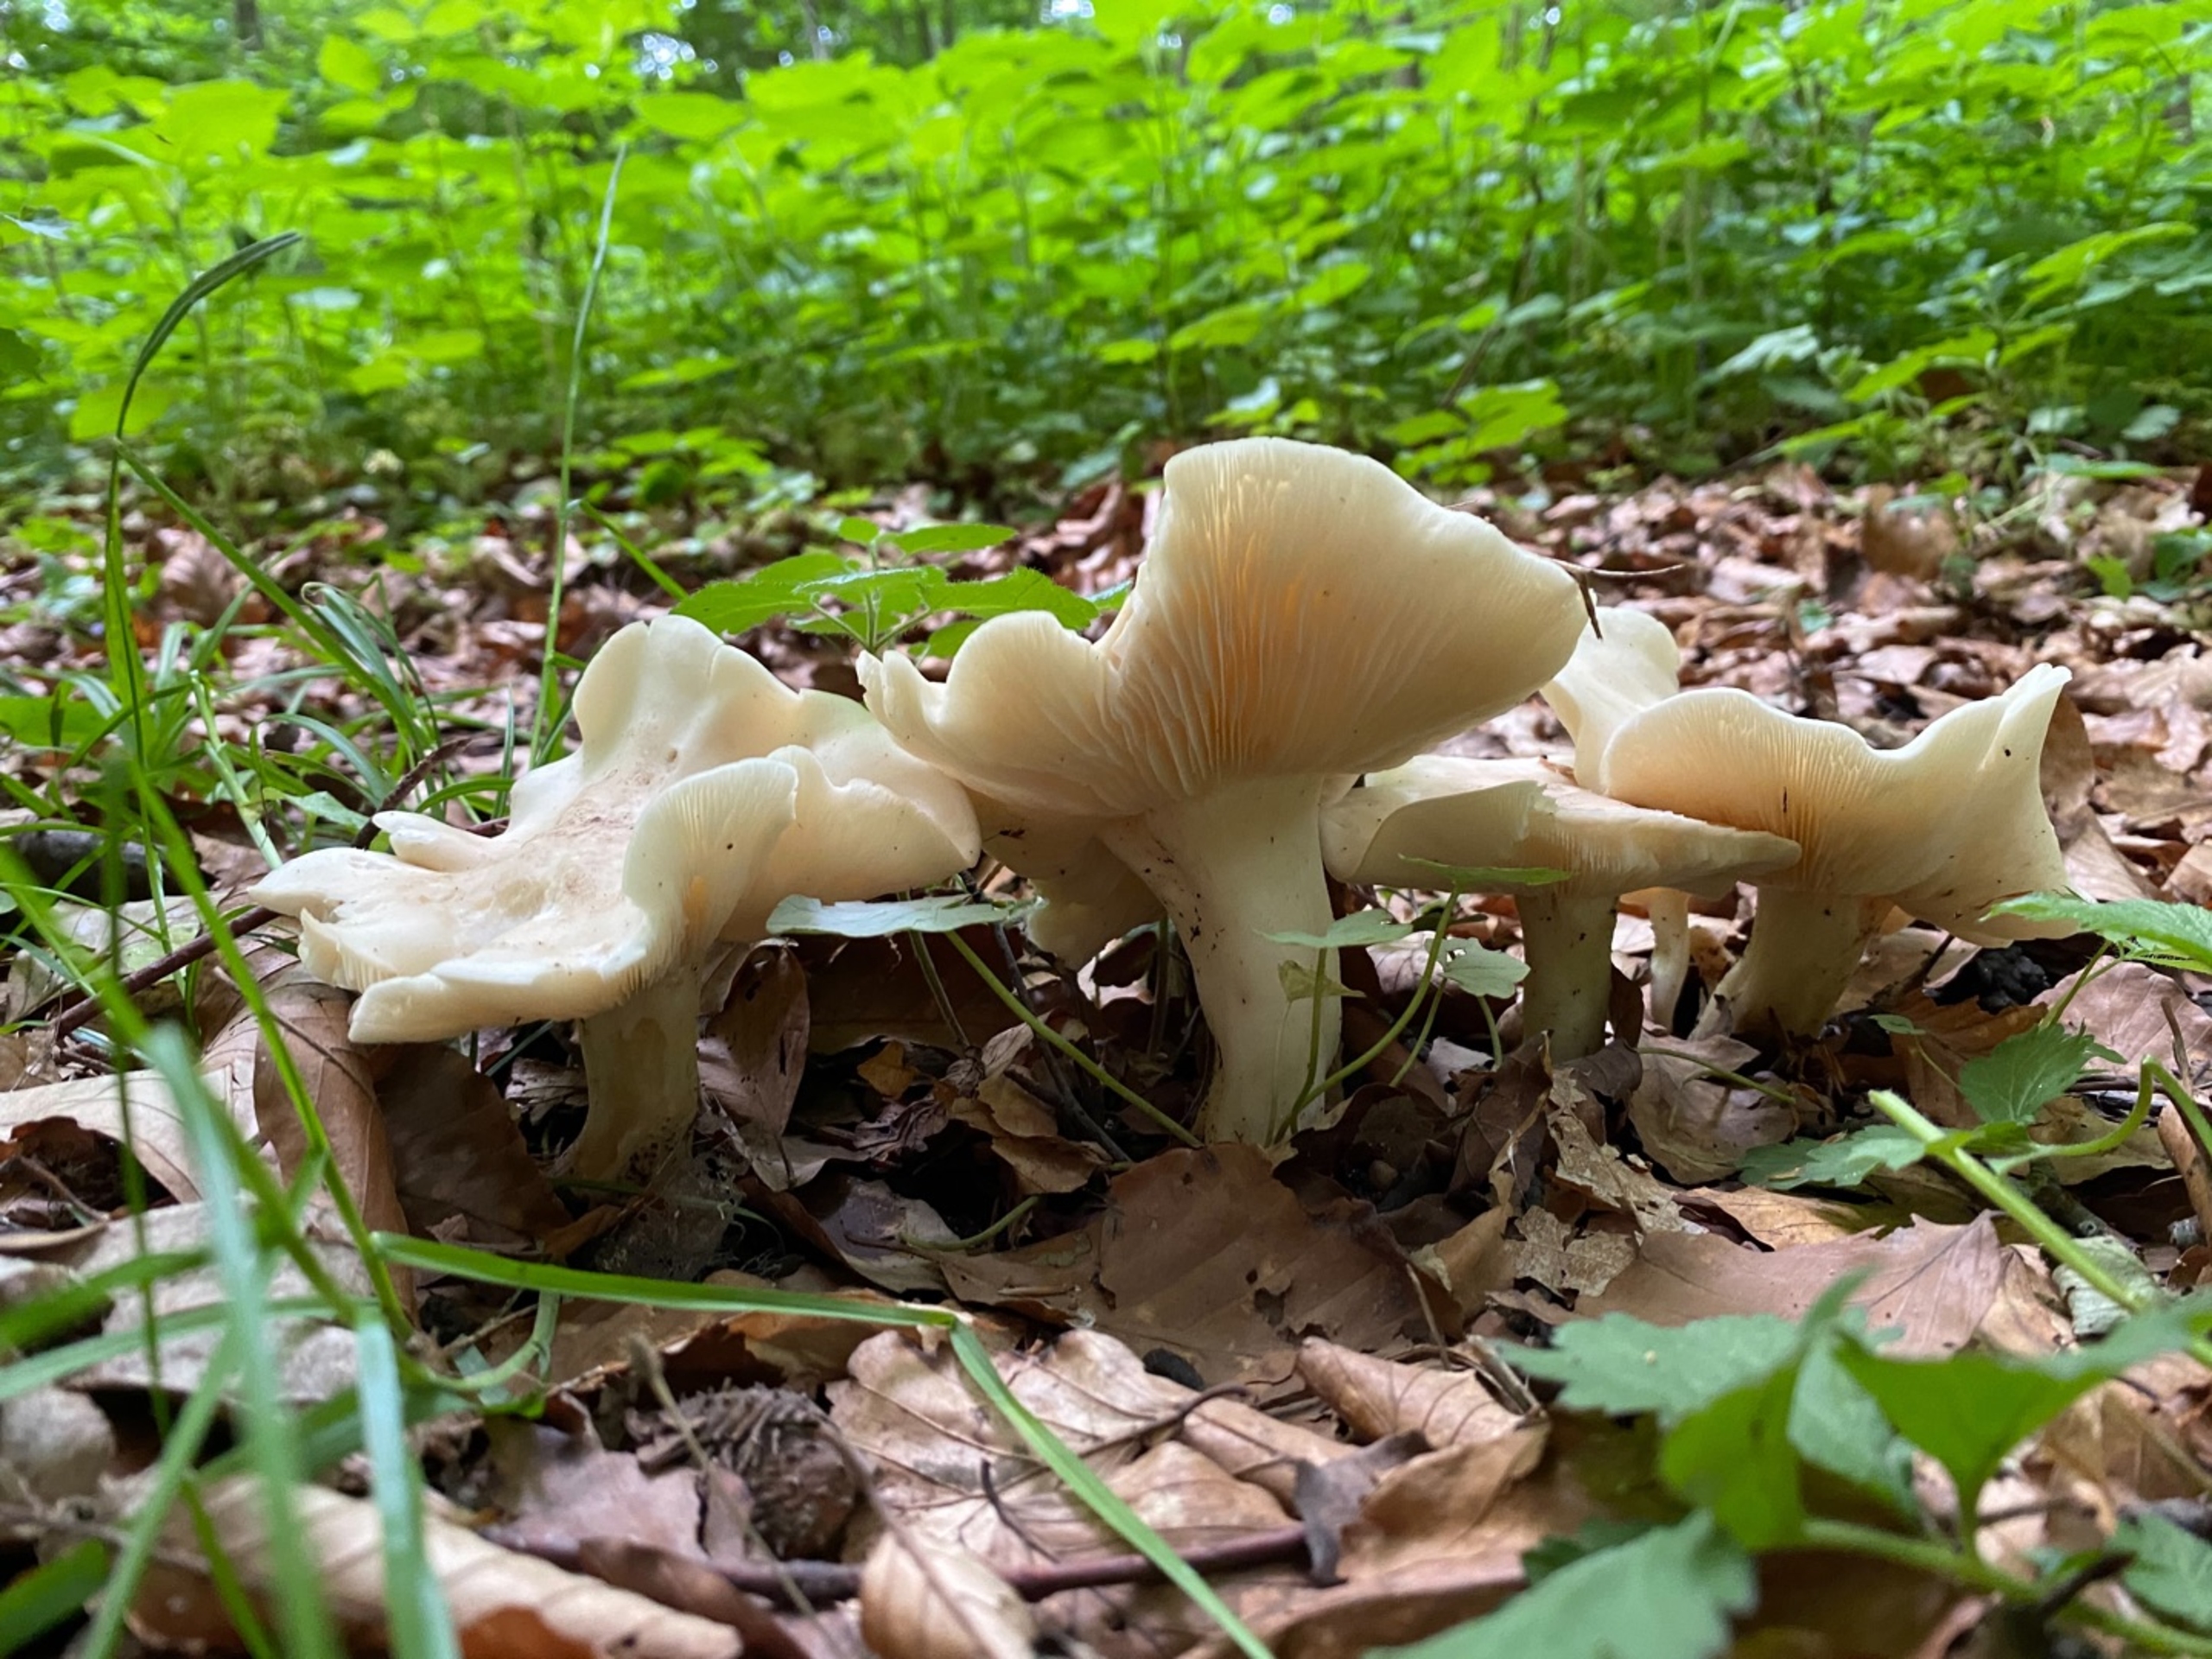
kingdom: Fungi
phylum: Basidiomycota
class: Agaricomycetes
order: Agaricales
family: Lyophyllaceae
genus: Calocybe
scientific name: Calocybe gambosa
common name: Vårmusseron
